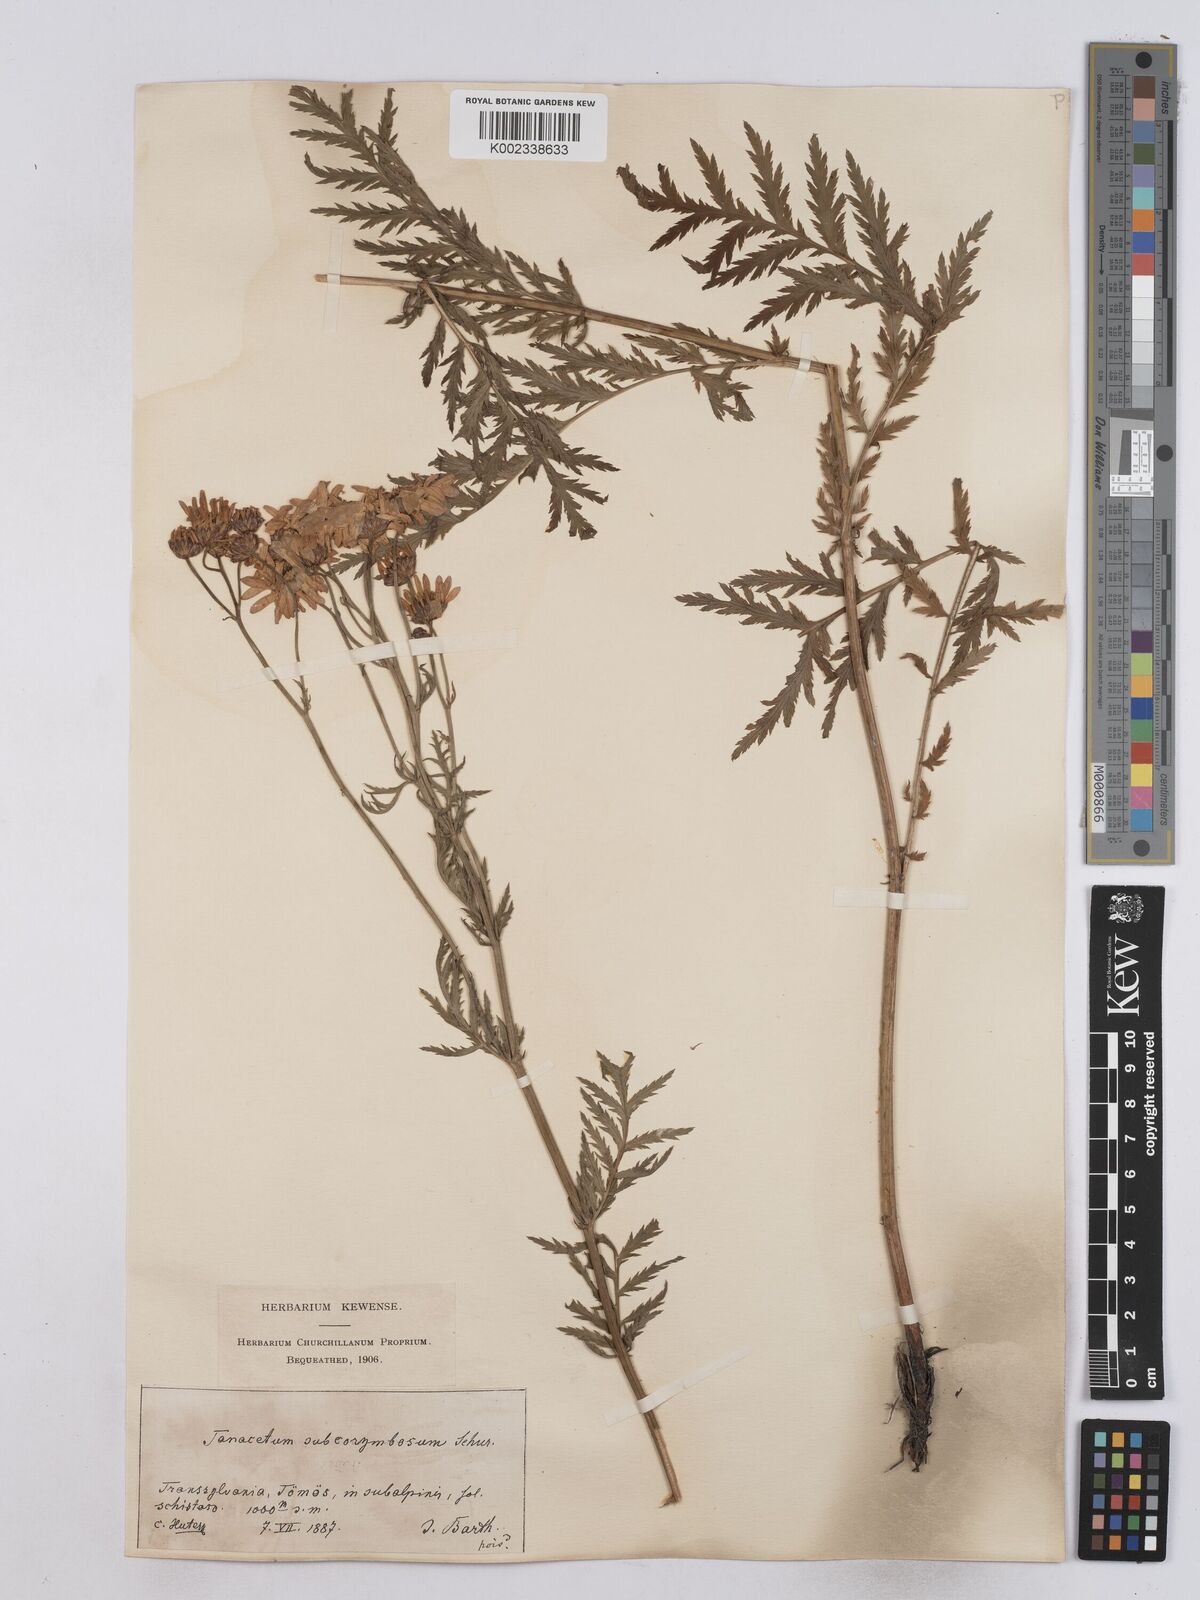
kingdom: Plantae
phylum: Tracheophyta
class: Magnoliopsida
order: Asterales
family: Asteraceae
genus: Tanacetum
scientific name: Tanacetum corymbosum
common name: Scentless feverfew
